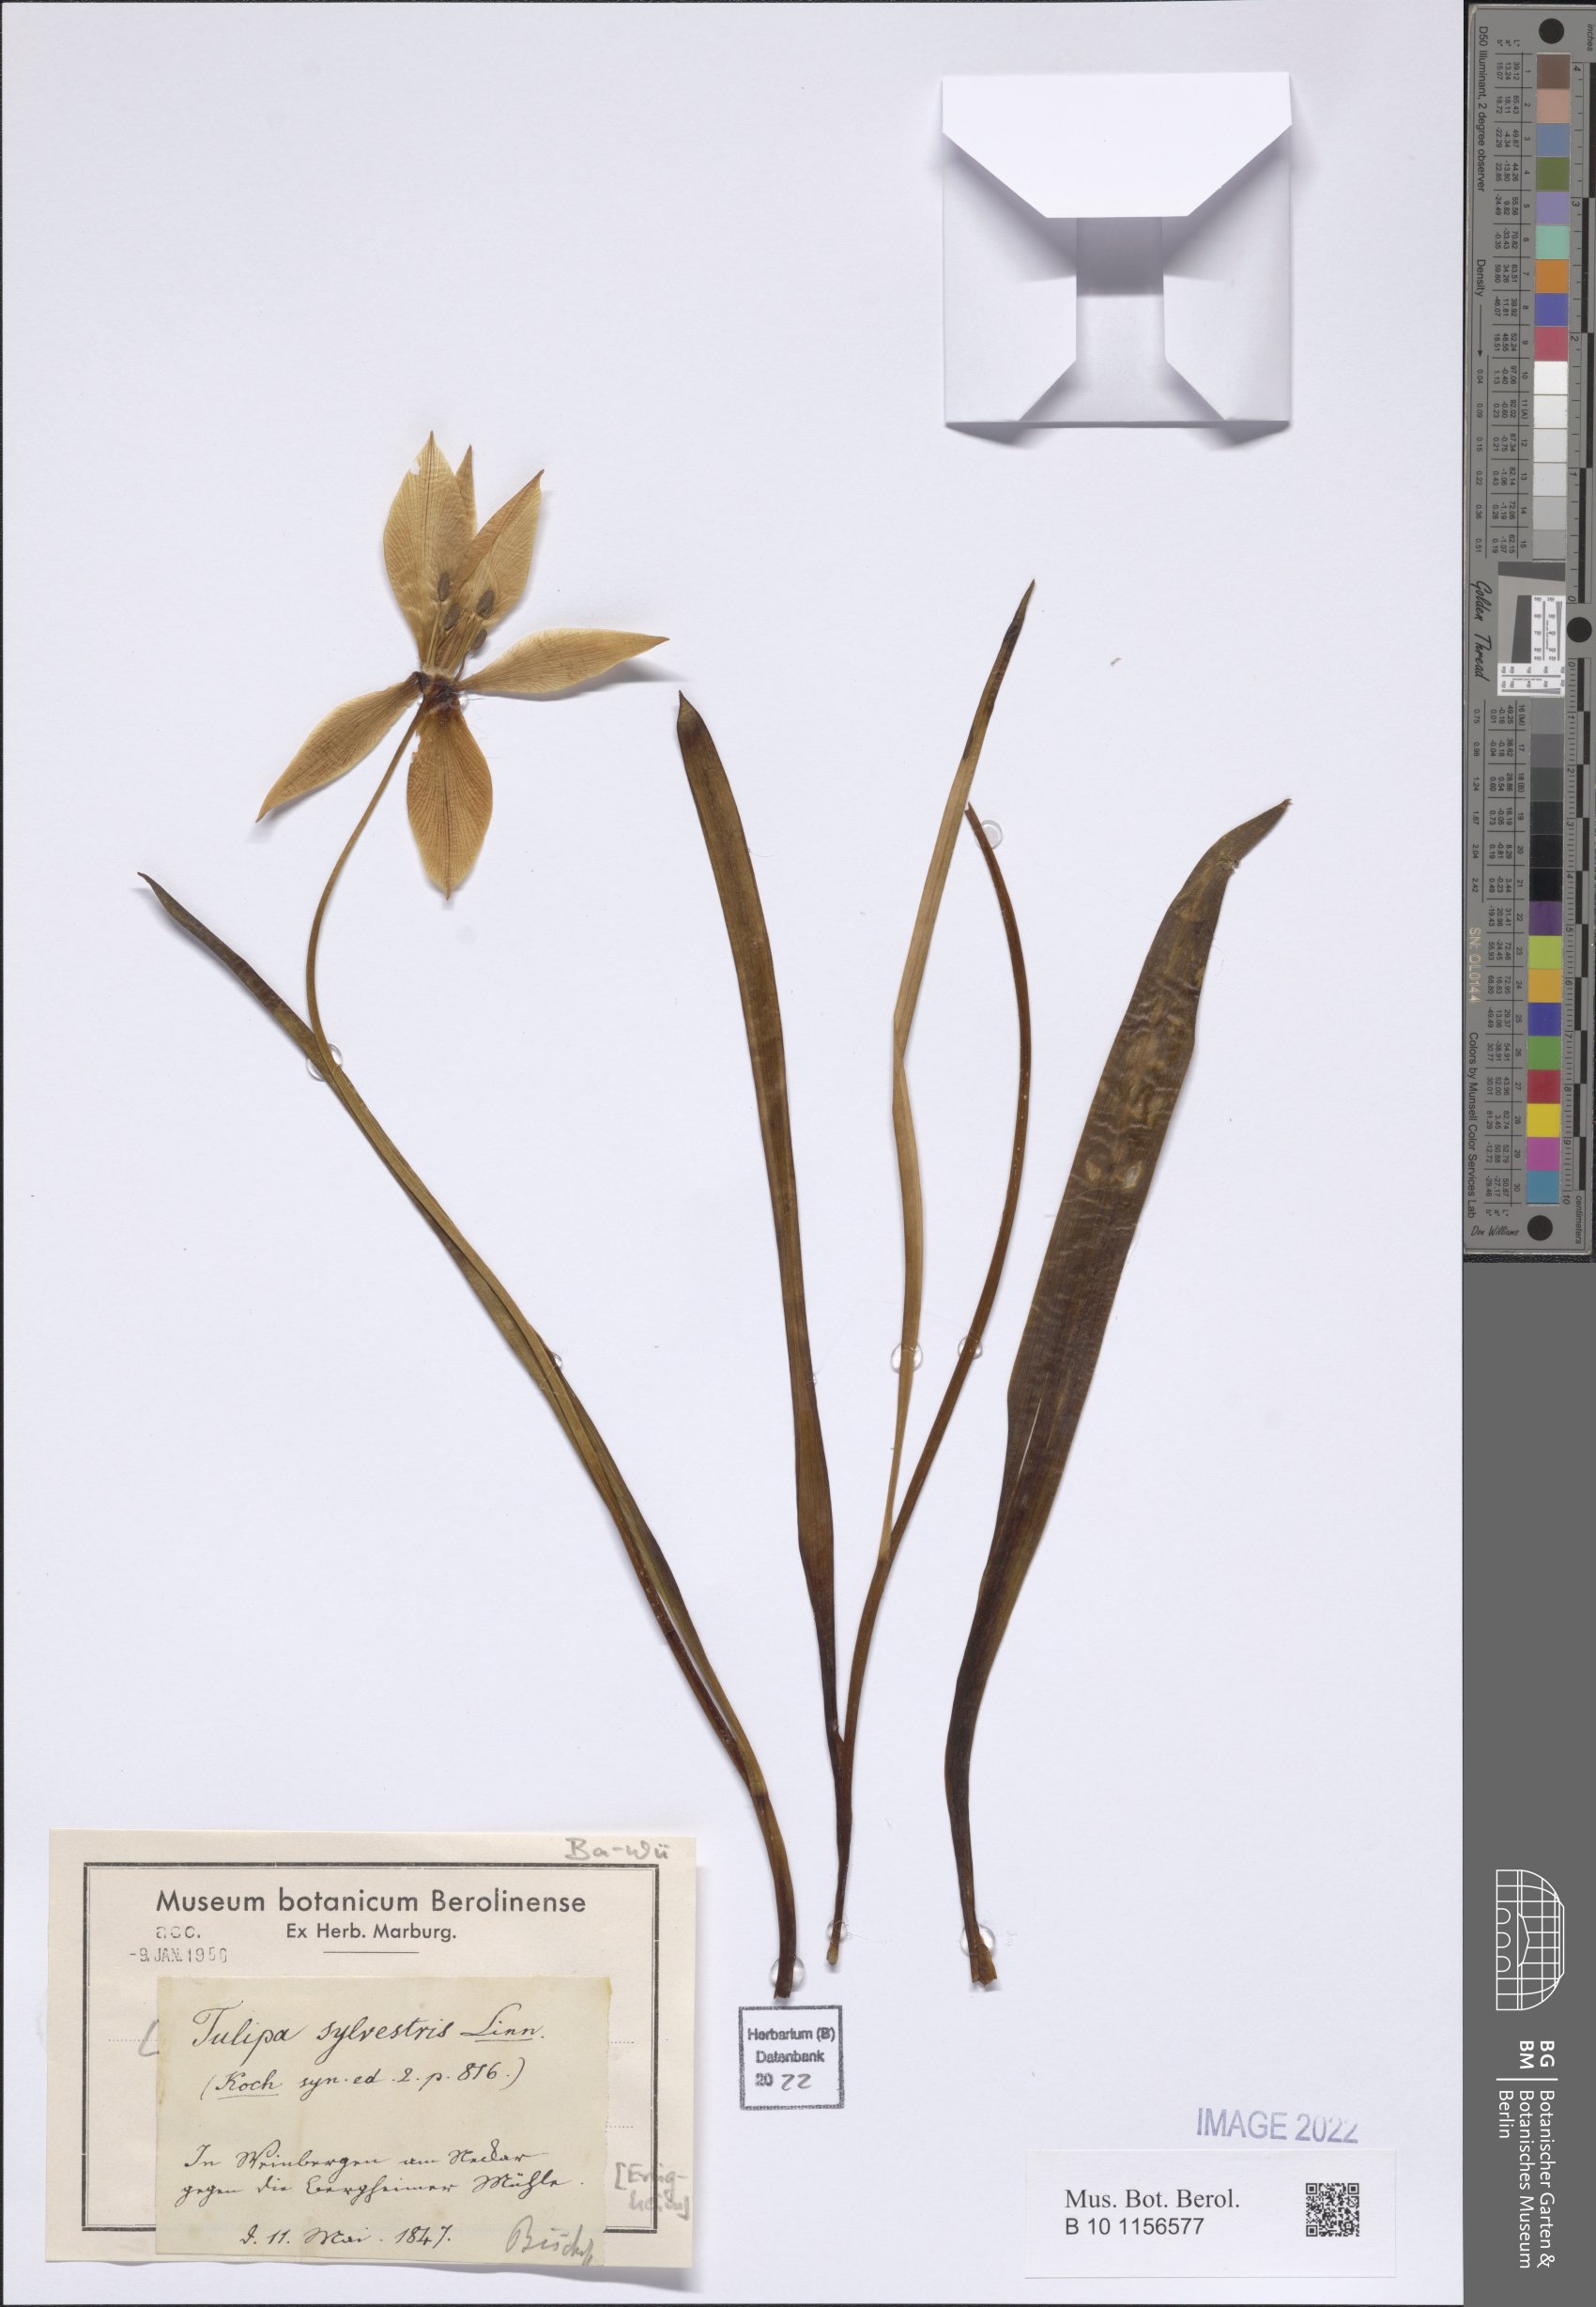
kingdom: Plantae
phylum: Tracheophyta
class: Liliopsida
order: Liliales
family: Liliaceae
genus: Tulipa
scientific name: Tulipa sylvestris
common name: Wild tulip
